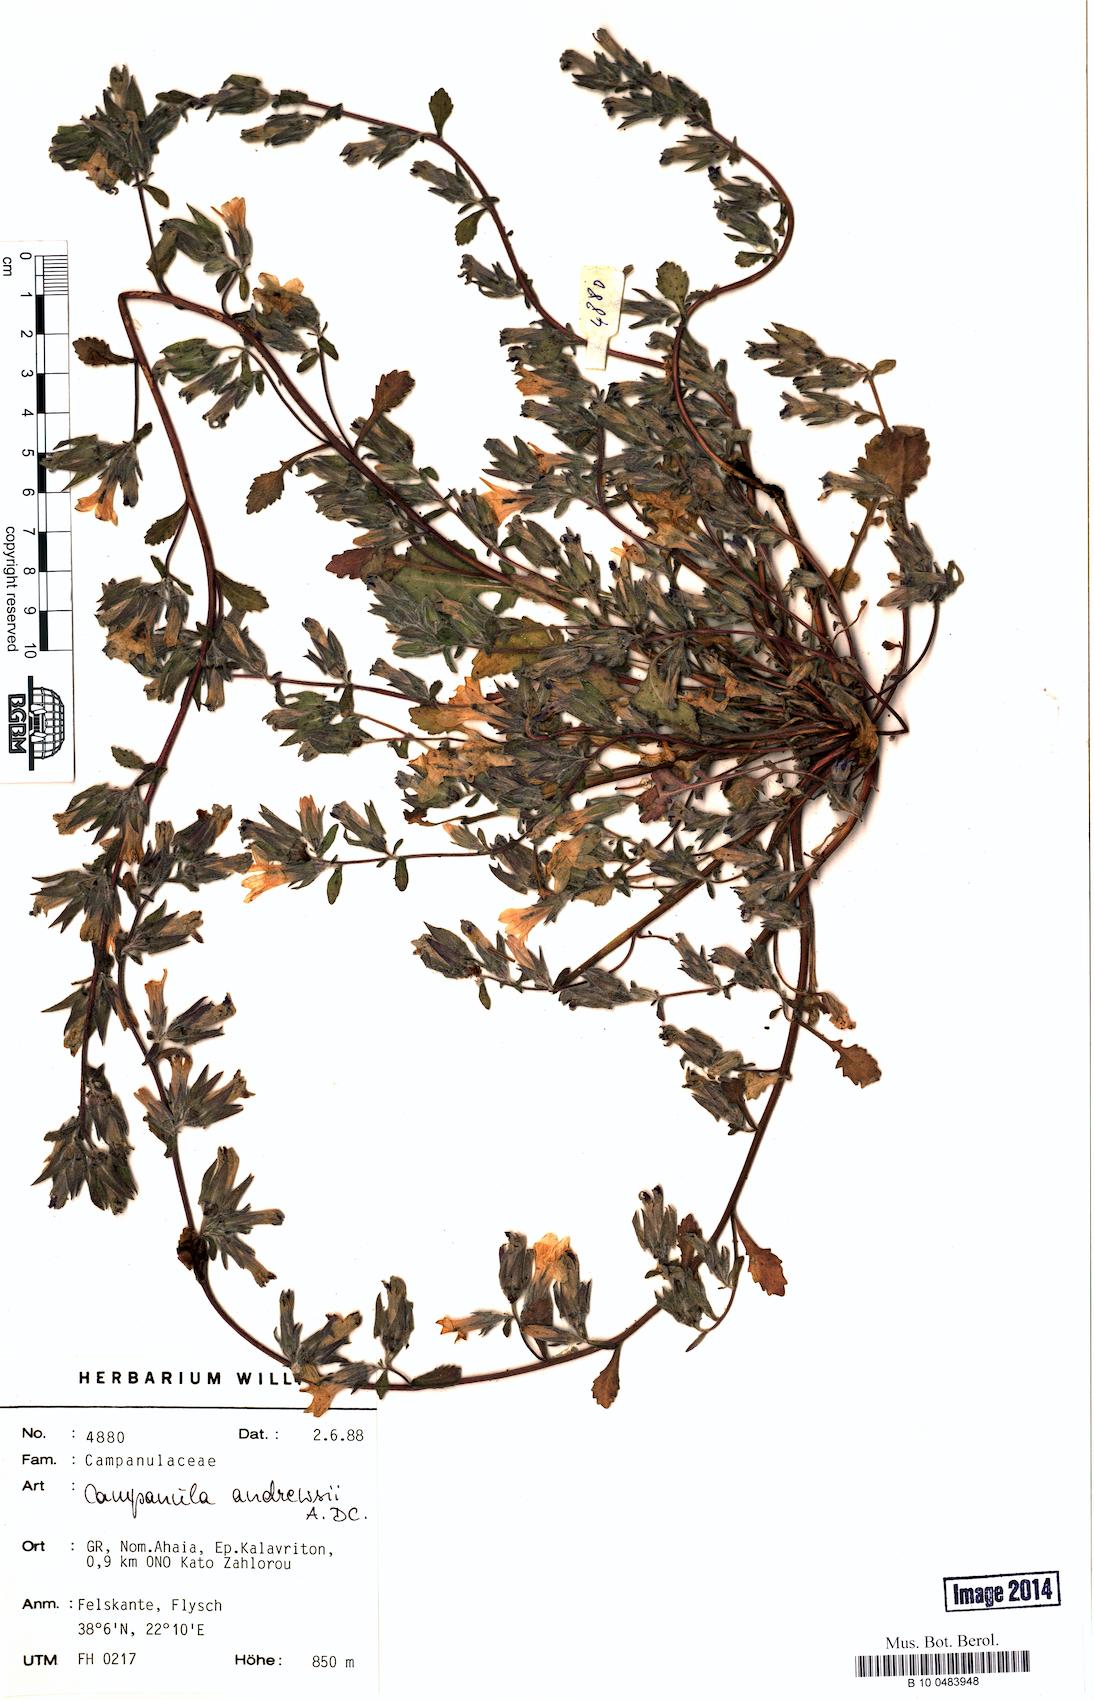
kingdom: Plantae
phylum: Tracheophyta
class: Magnoliopsida
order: Asterales
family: Campanulaceae
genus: Campanula
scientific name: Campanula andrewsii
